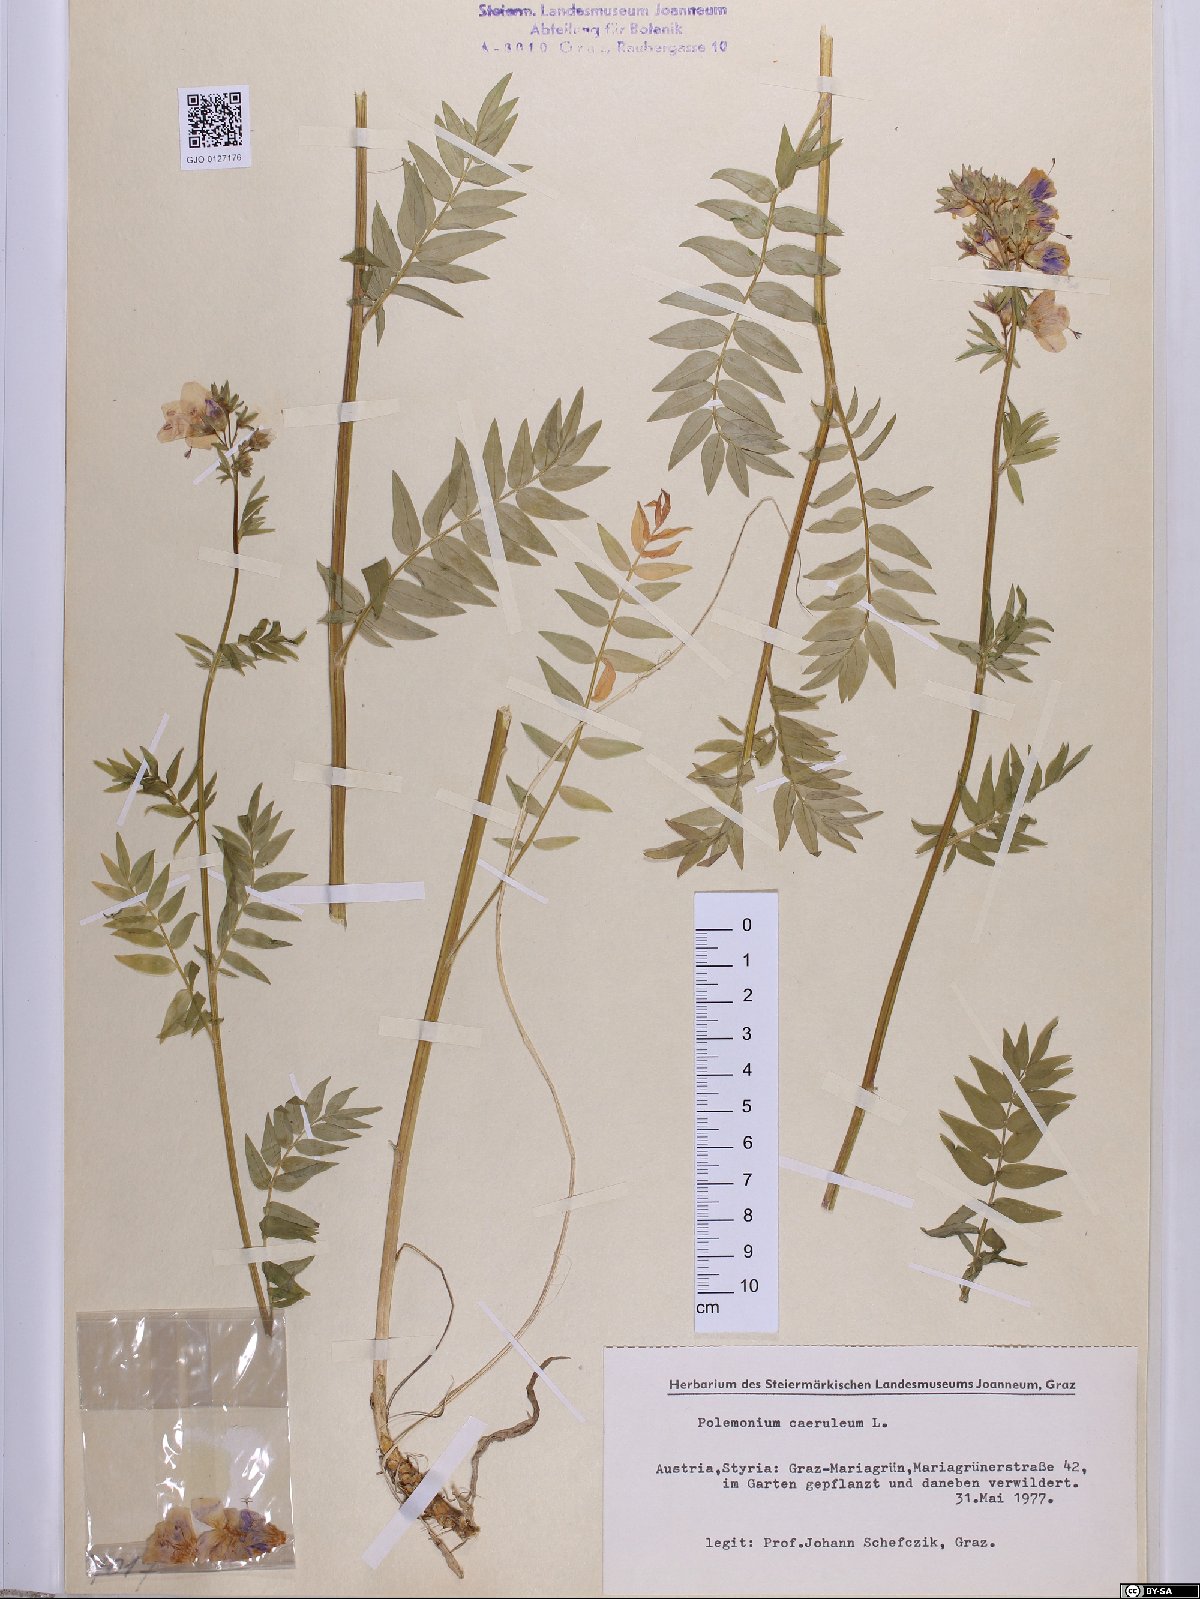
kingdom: Plantae
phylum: Tracheophyta
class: Magnoliopsida
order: Ericales
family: Polemoniaceae
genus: Polemonium
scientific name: Polemonium caeruleum
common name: Jacob's-ladder
